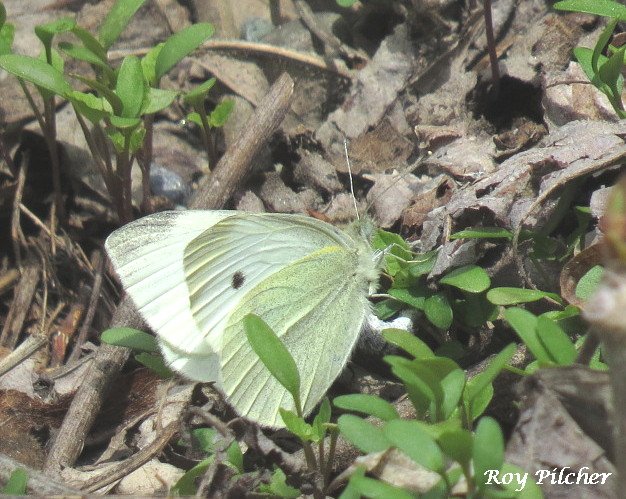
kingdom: Animalia
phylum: Arthropoda
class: Insecta
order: Lepidoptera
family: Pieridae
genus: Pieris
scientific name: Pieris rapae
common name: Cabbage White
